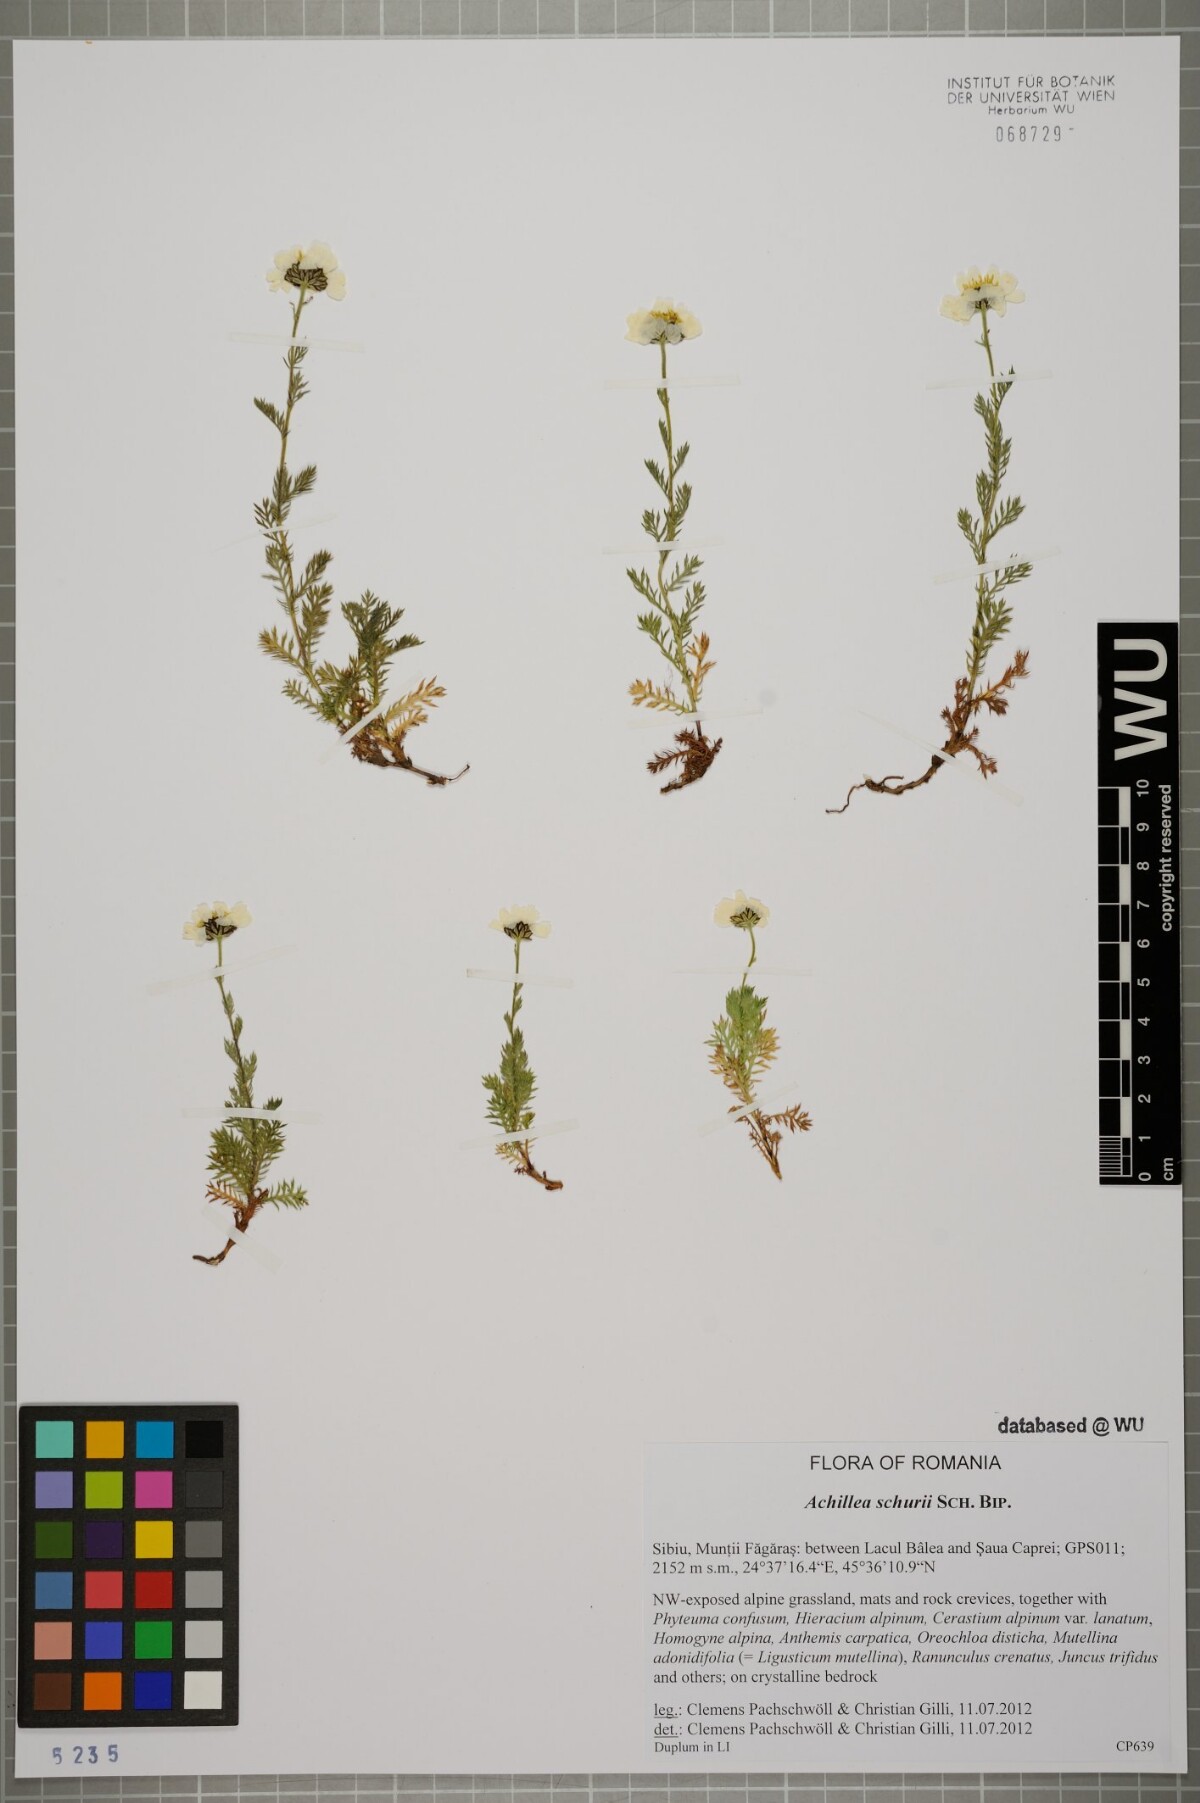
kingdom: Plantae
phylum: Tracheophyta
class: Magnoliopsida
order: Asterales
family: Asteraceae
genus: Achillea
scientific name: Achillea oxyloba
